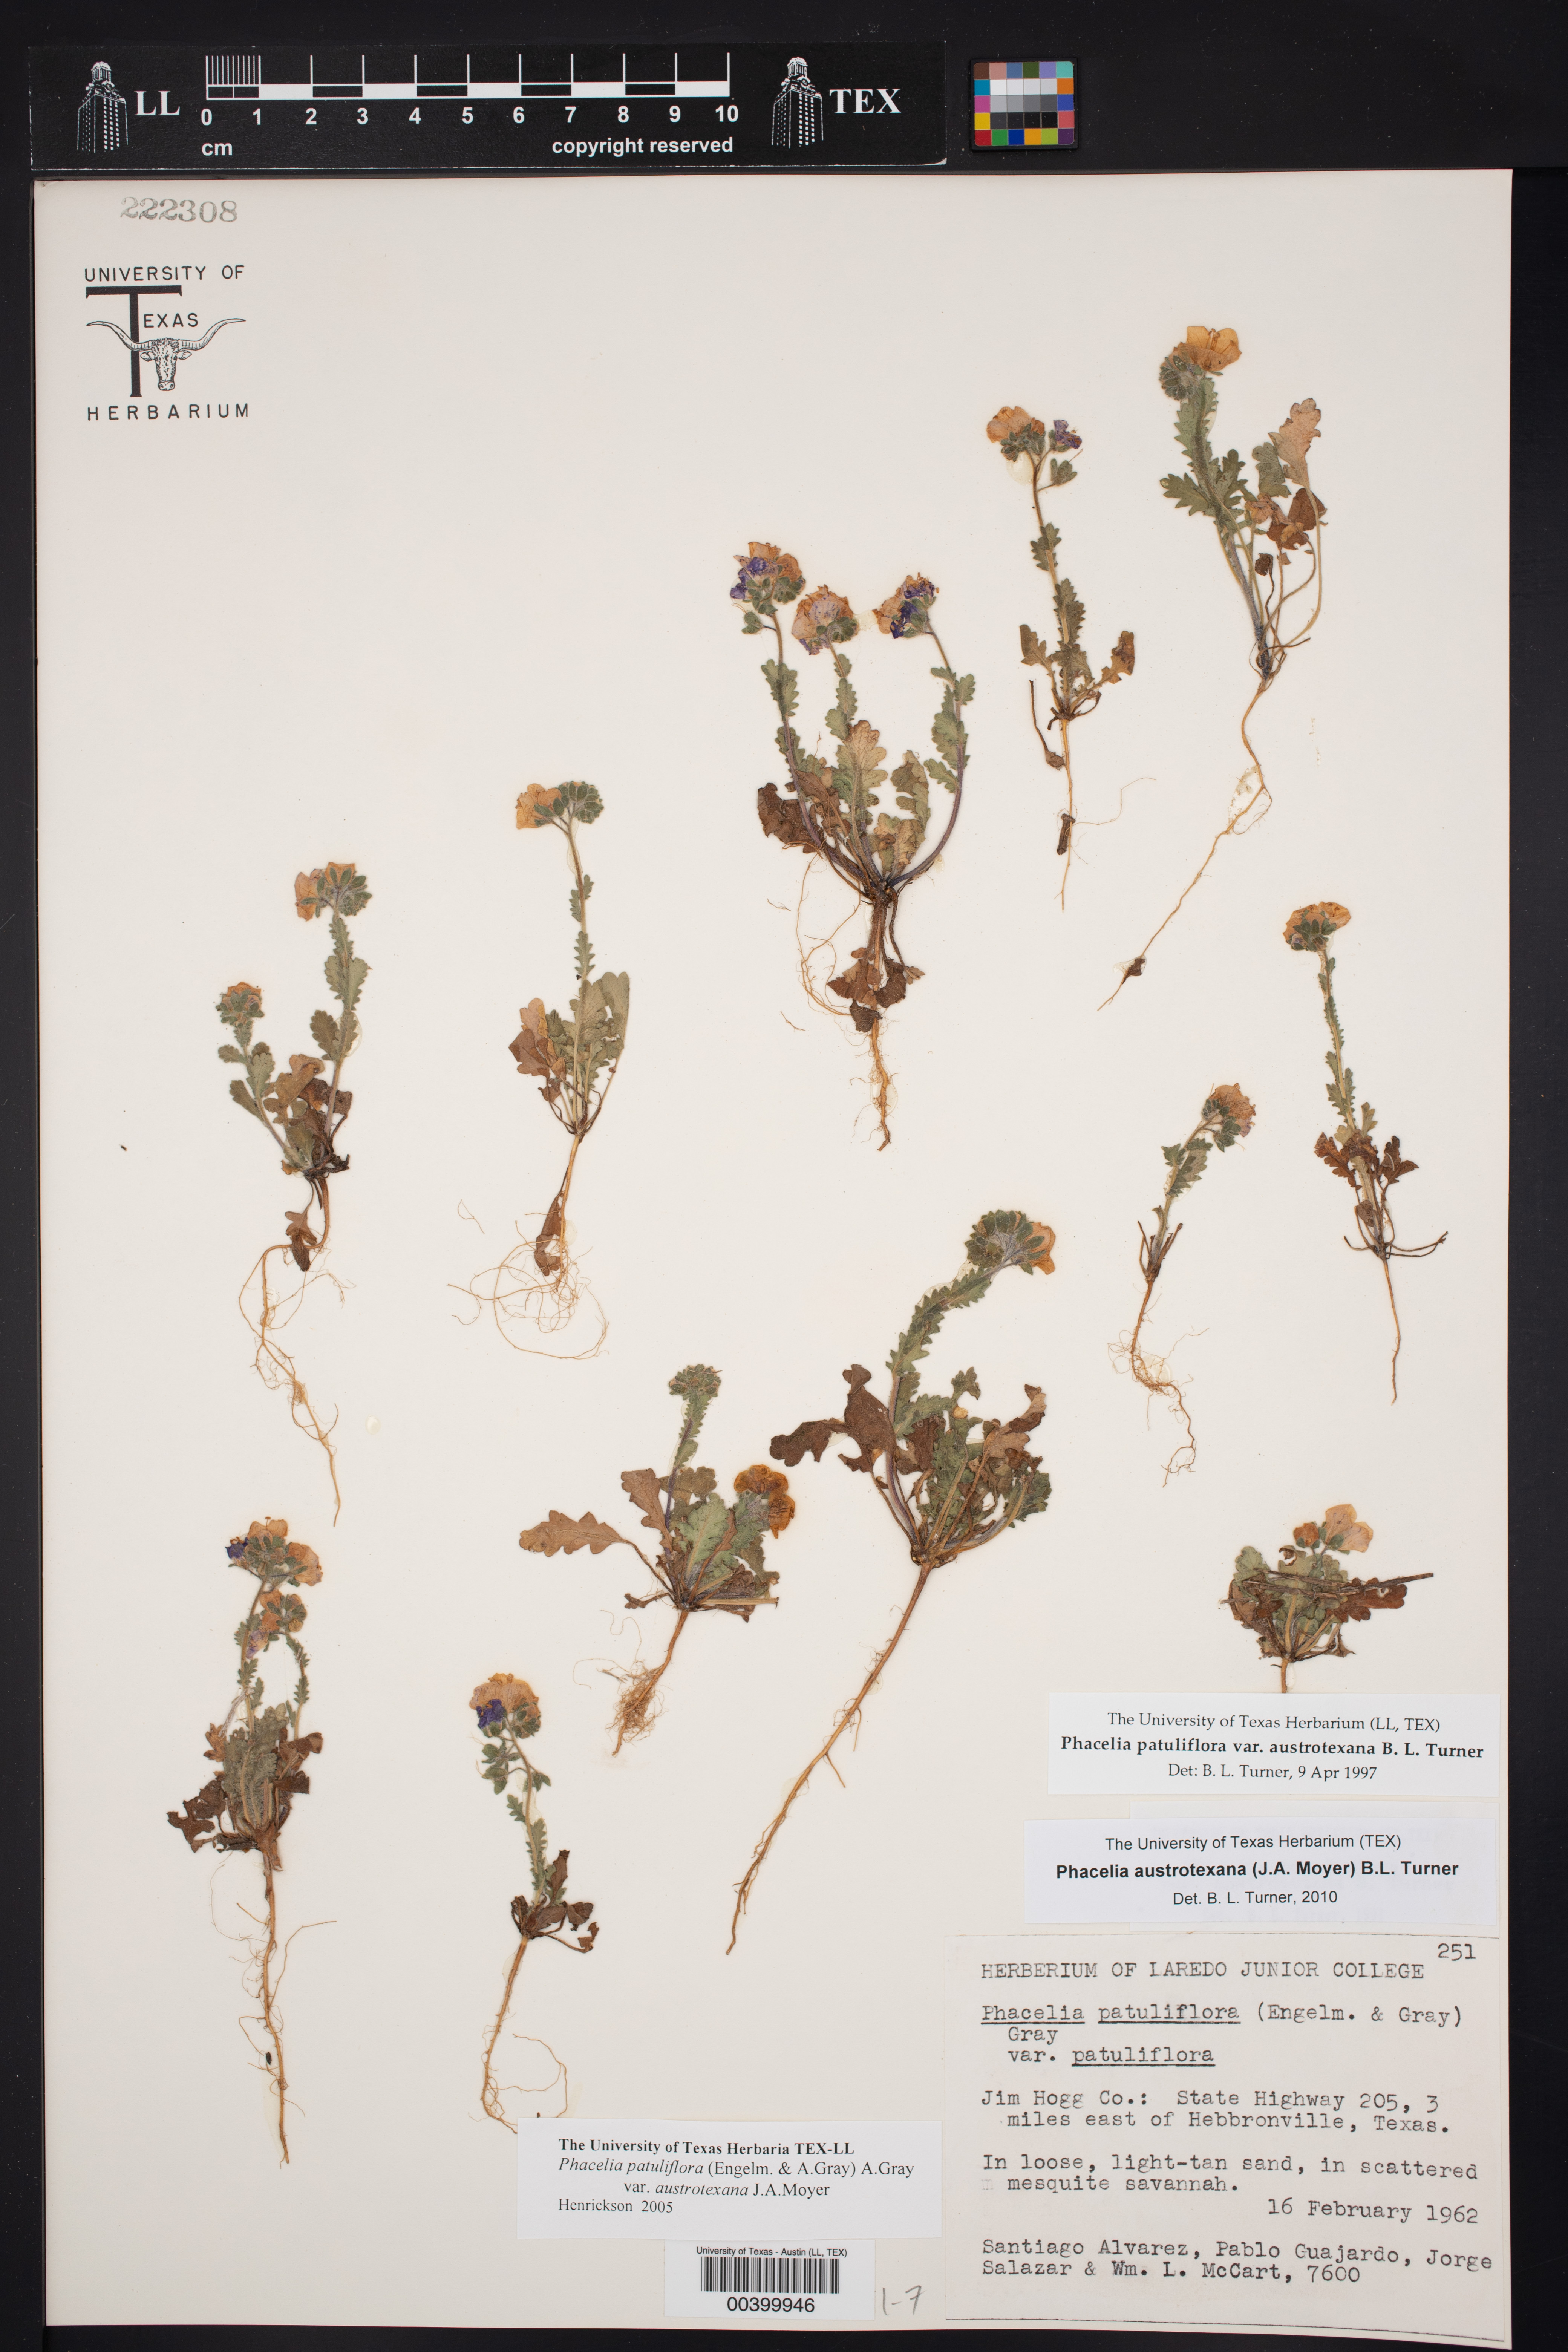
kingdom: Plantae
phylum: Tracheophyta
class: Magnoliopsida
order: Boraginales
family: Hydrophyllaceae
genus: Phacelia
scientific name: Phacelia austrotexana
